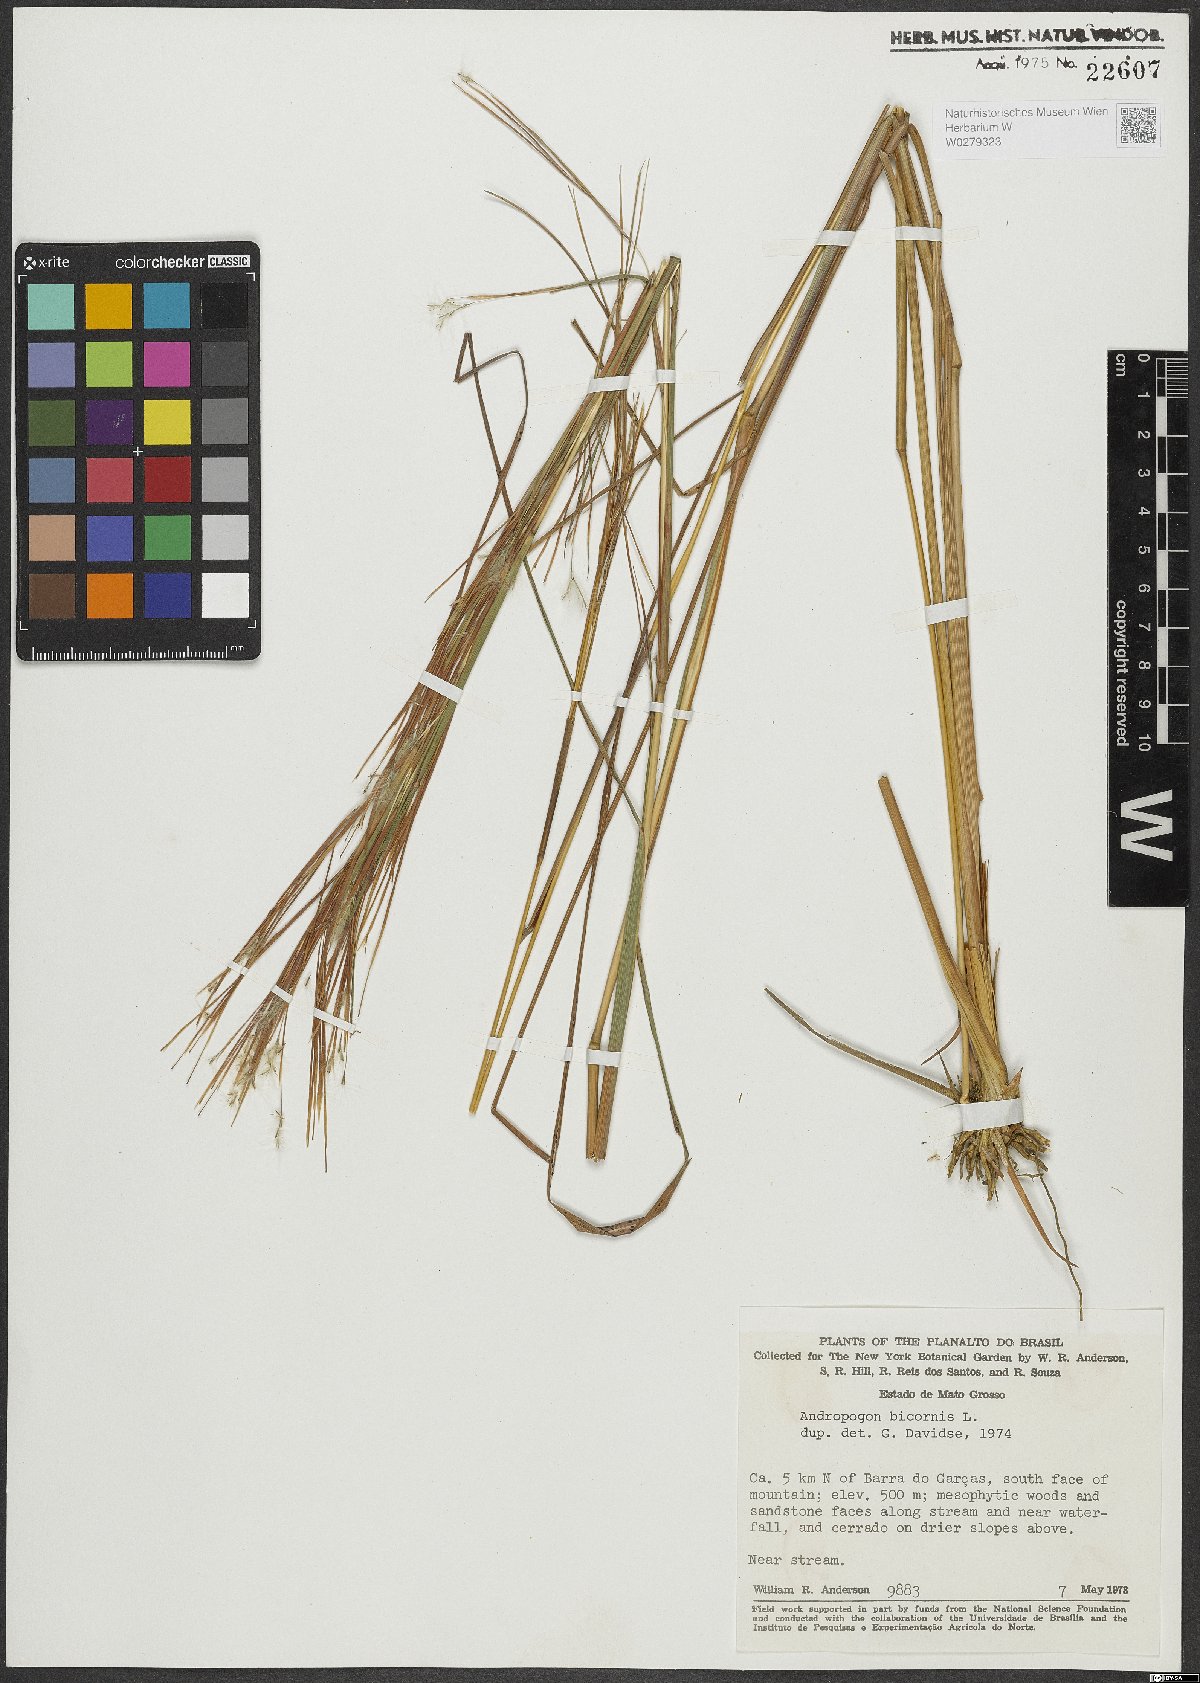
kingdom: Plantae
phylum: Tracheophyta
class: Liliopsida
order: Poales
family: Poaceae
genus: Andropogon
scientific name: Andropogon bicornis
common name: West indian foxtail grass
